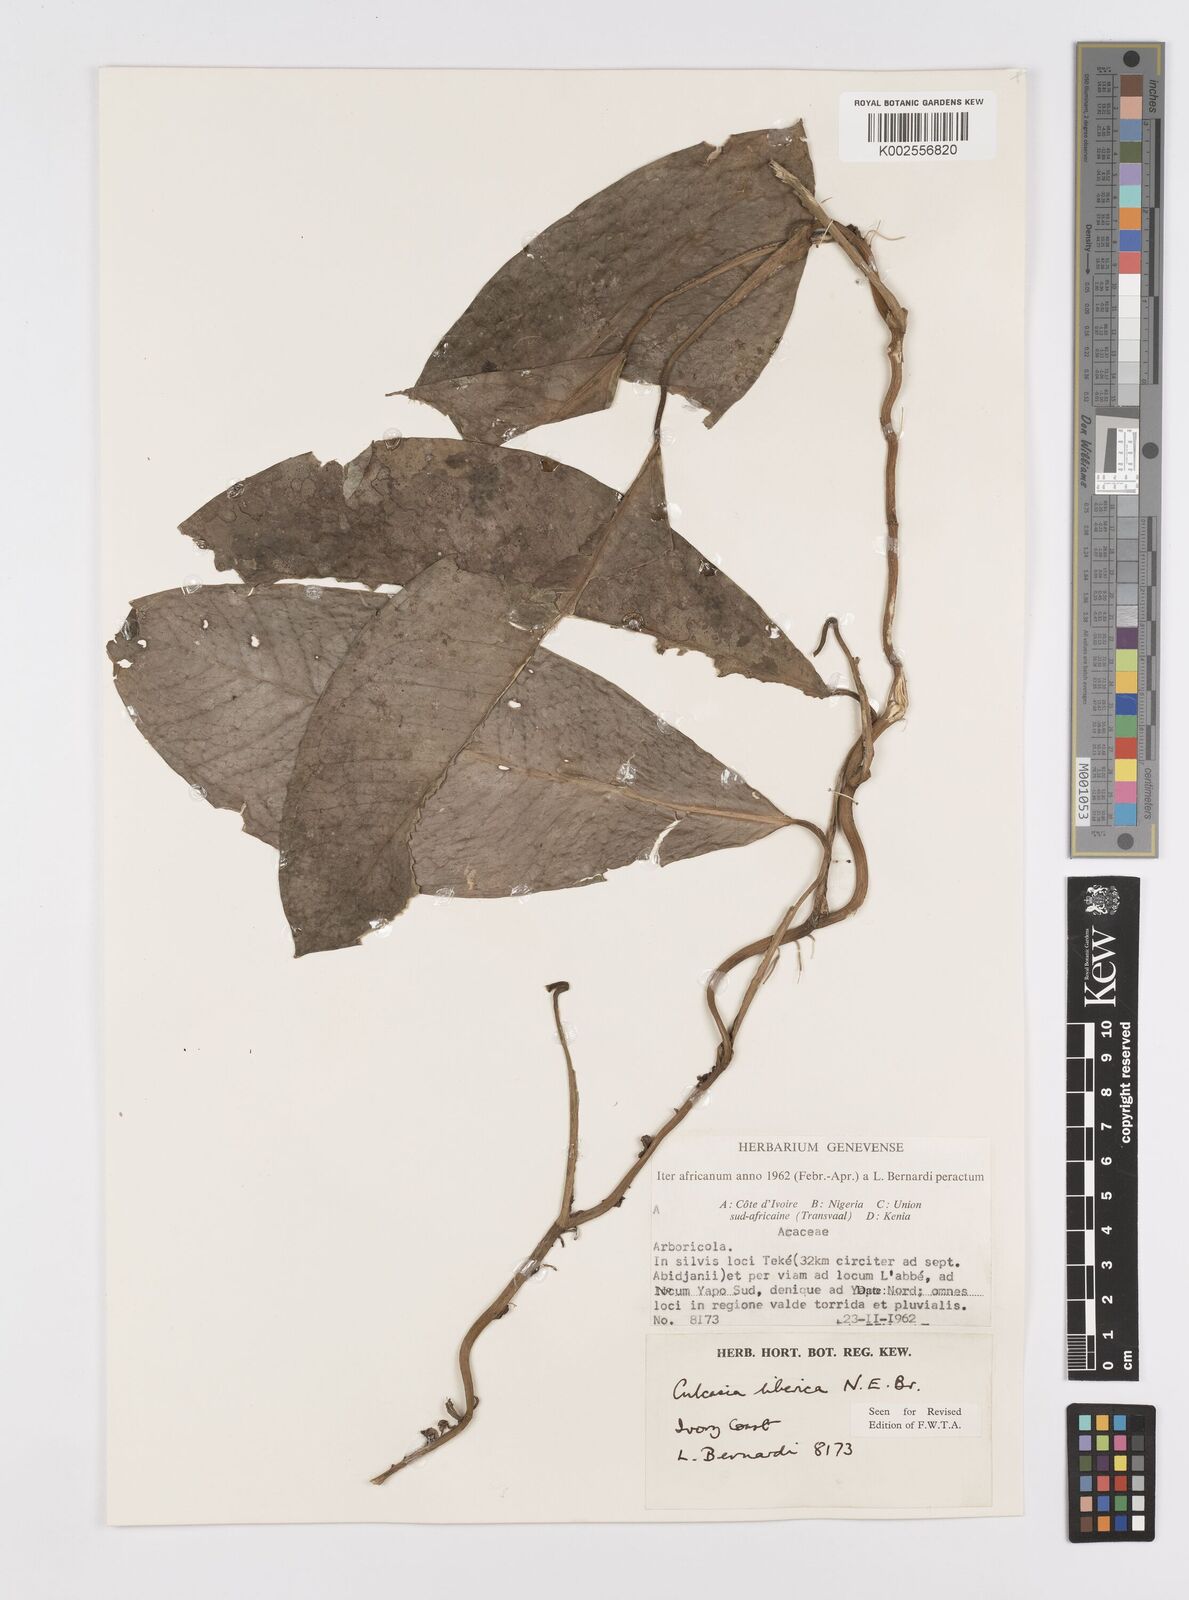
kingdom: Plantae
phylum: Tracheophyta
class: Liliopsida
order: Alismatales
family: Araceae
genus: Culcasia
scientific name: Culcasia liberica
